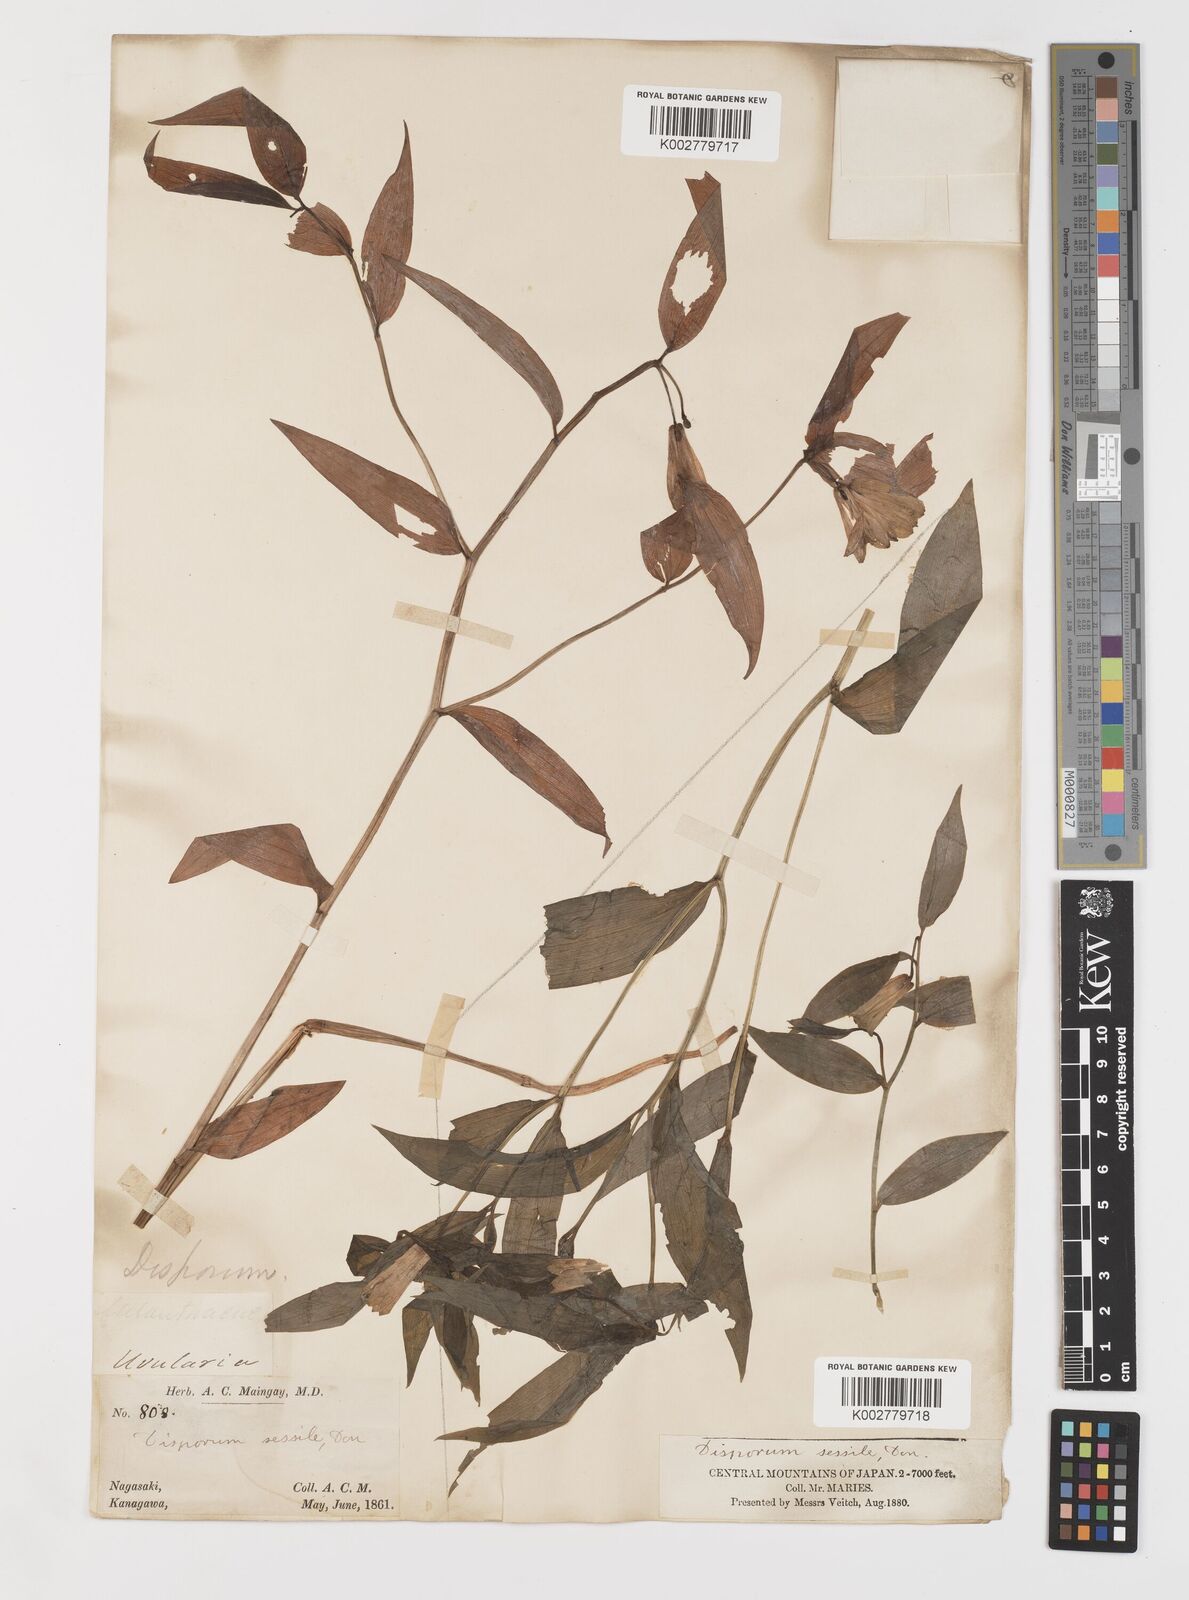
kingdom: Plantae
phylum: Tracheophyta
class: Liliopsida
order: Liliales
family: Colchicaceae
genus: Disporum
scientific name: Disporum sessile
